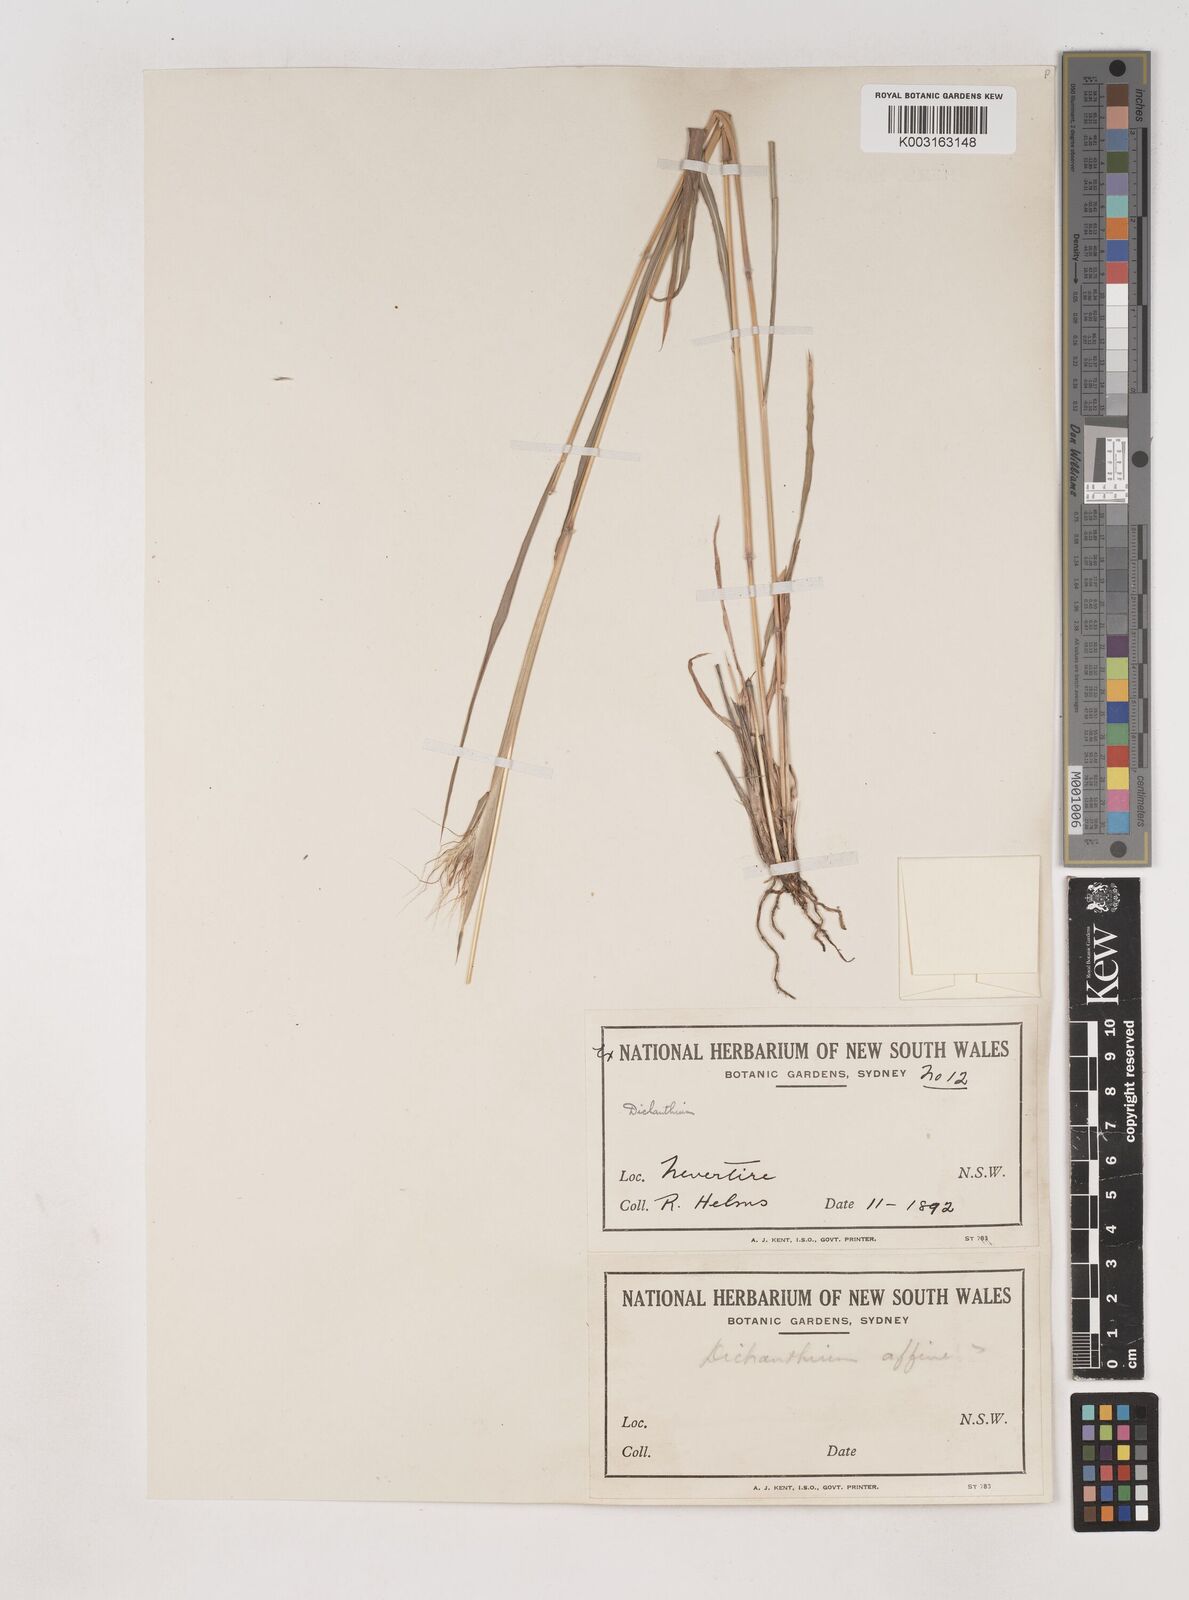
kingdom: Plantae
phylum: Tracheophyta
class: Liliopsida
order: Poales
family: Poaceae
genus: Dichanthium
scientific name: Dichanthium sericeum
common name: Silky bluestem
